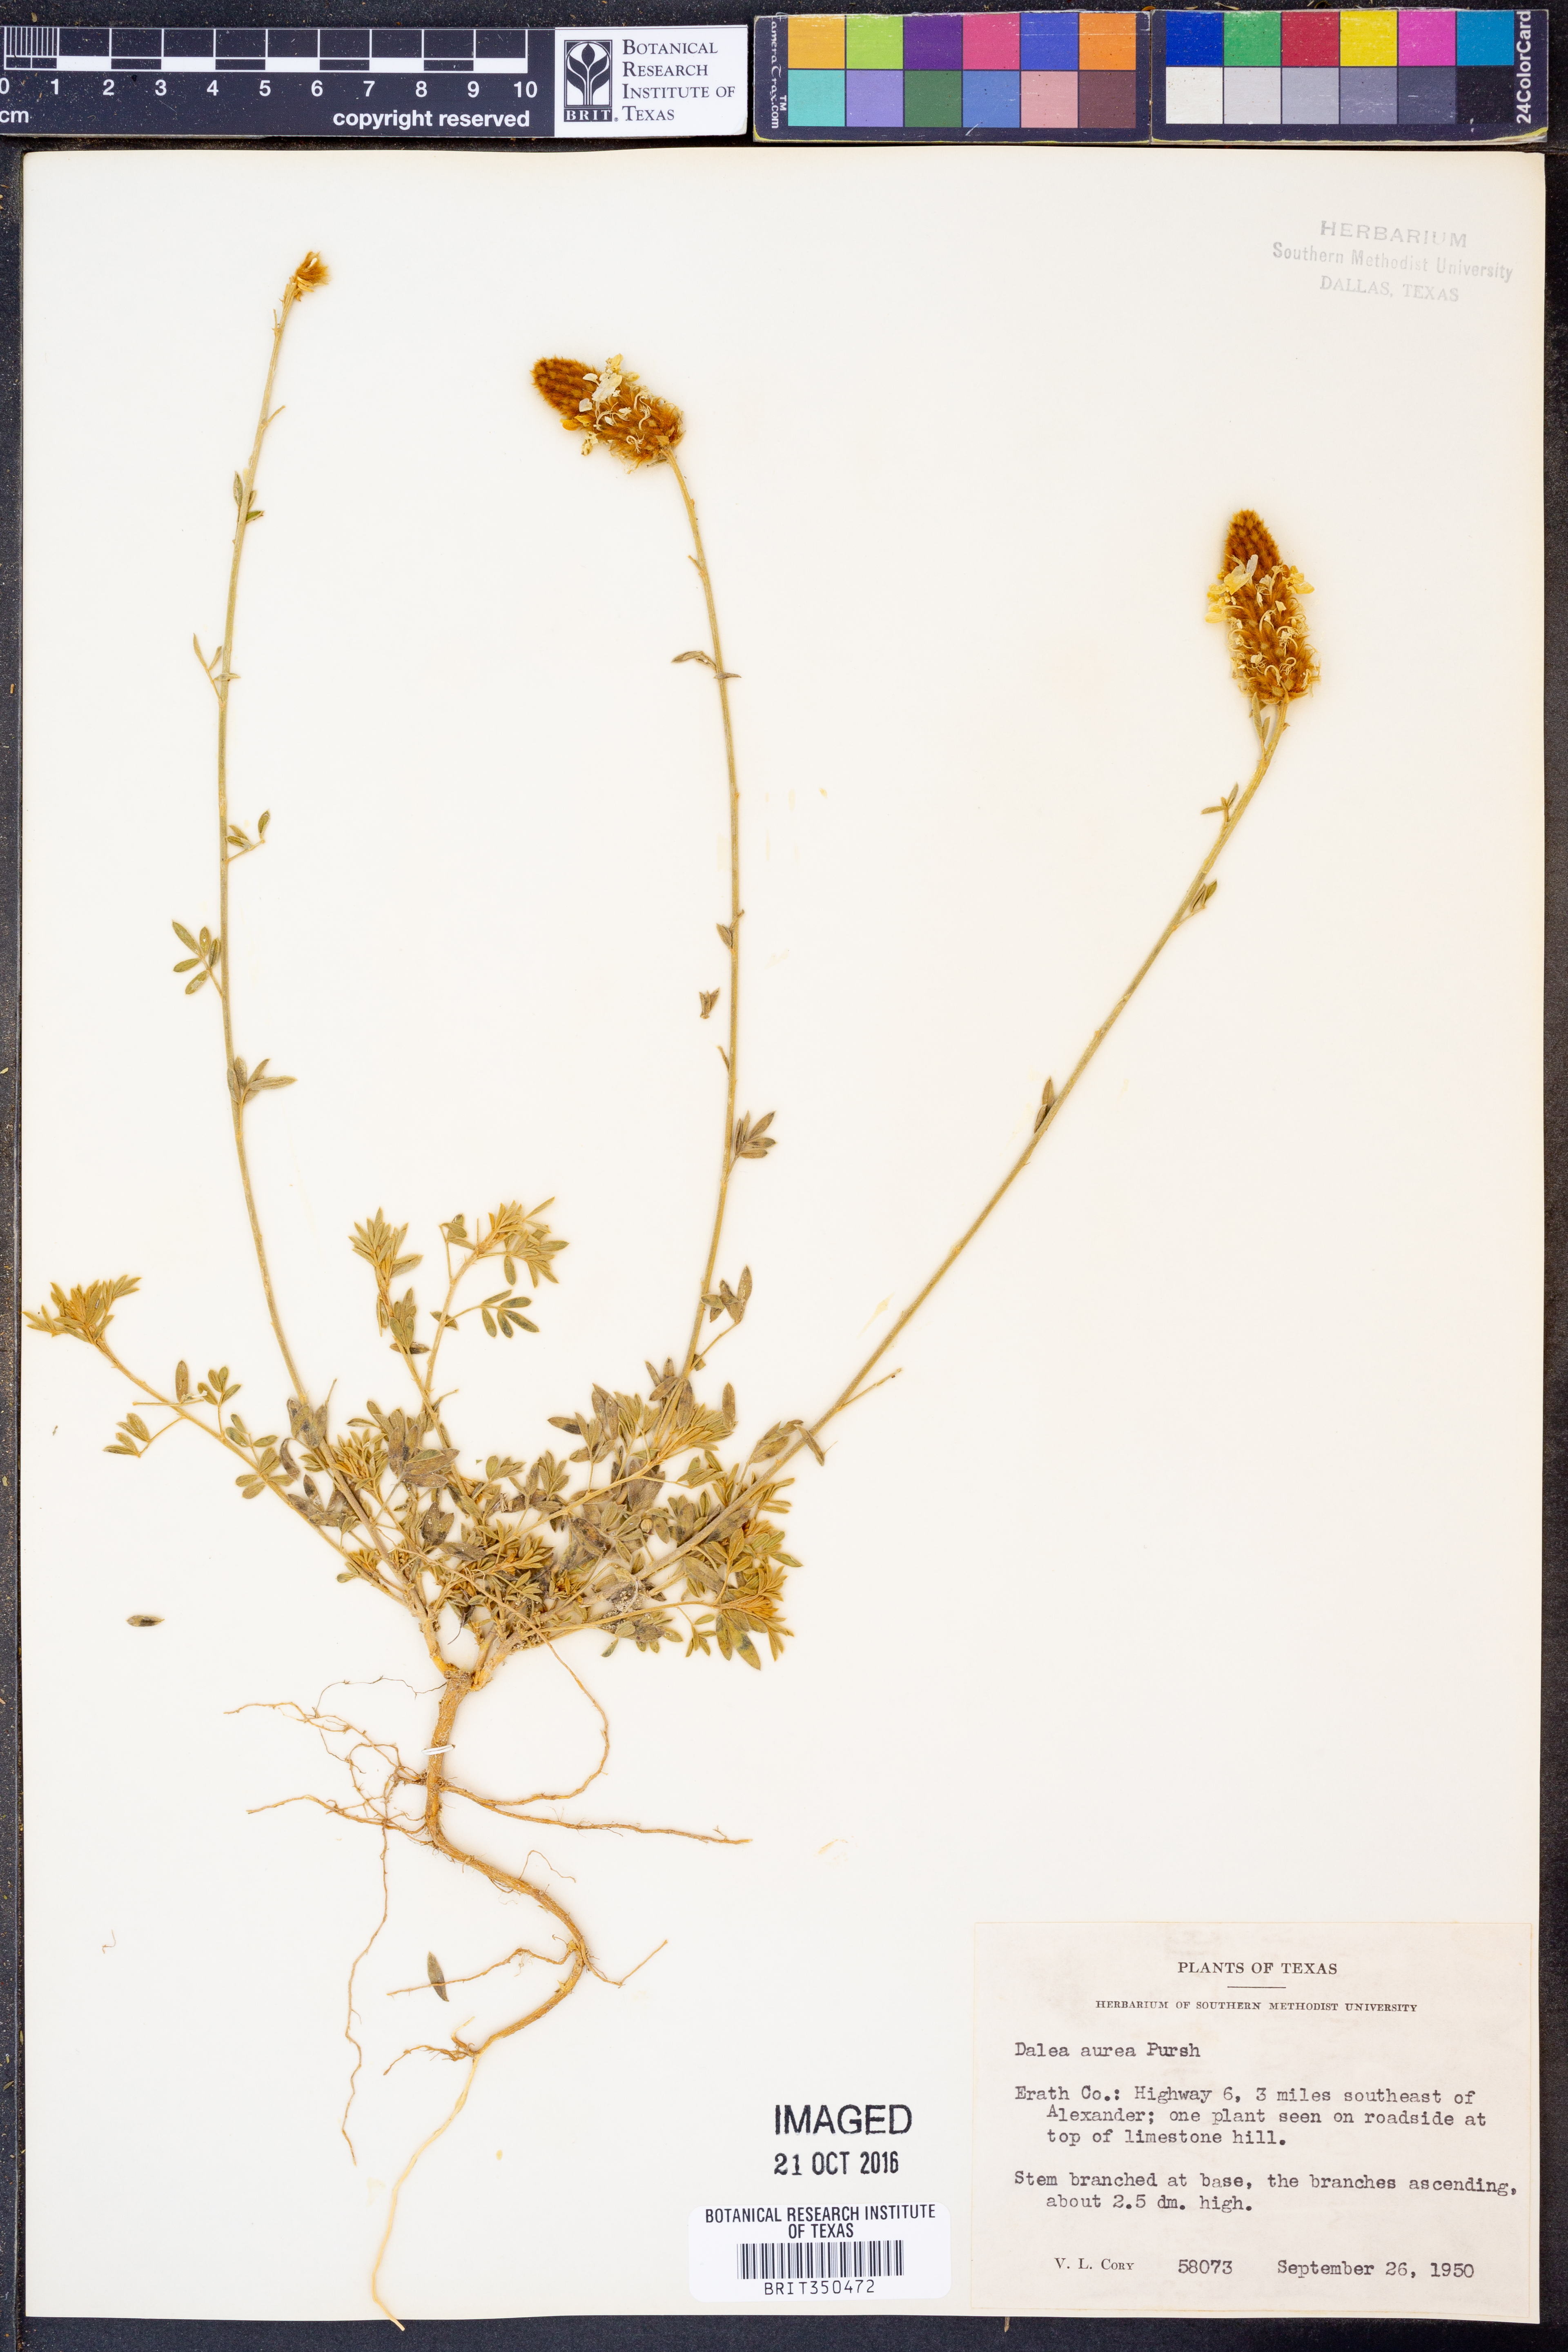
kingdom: Plantae
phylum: Tracheophyta
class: Magnoliopsida
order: Fabales
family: Fabaceae
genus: Dalea
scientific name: Dalea aurea
